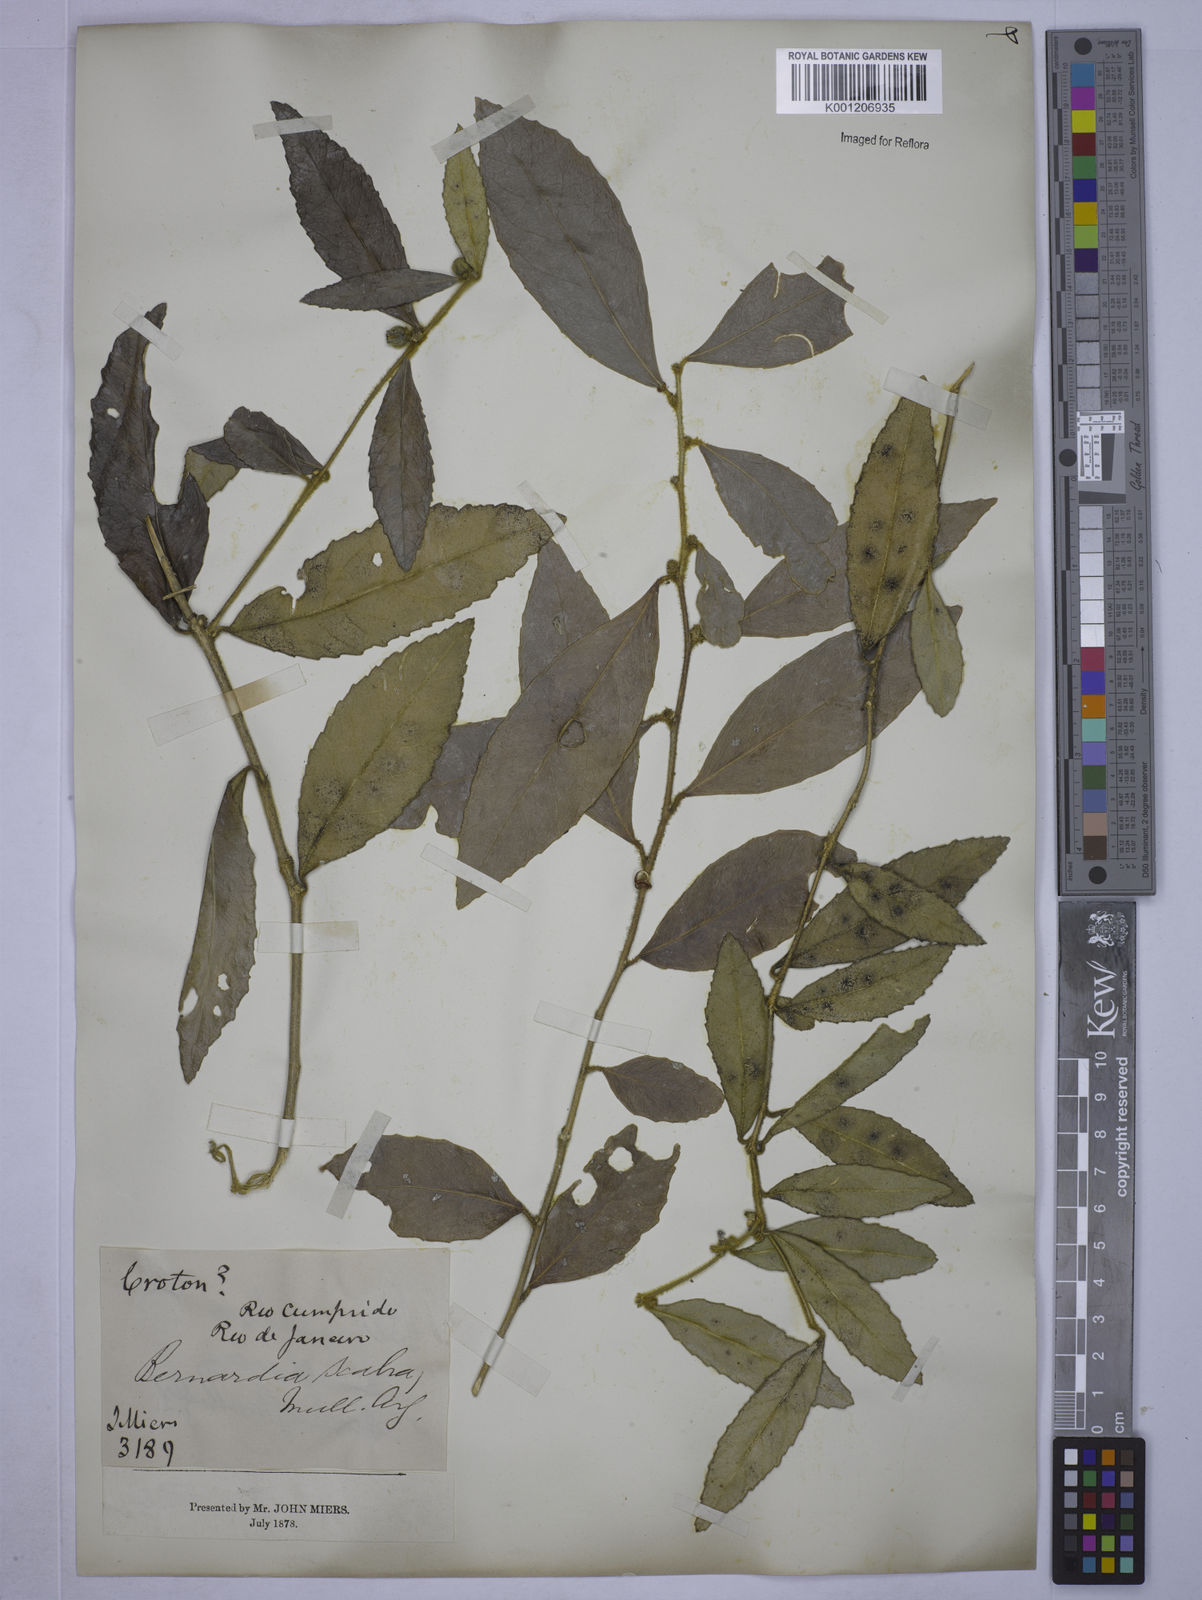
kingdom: Plantae
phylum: Tracheophyta
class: Magnoliopsida
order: Malpighiales
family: Euphorbiaceae
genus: Bernardia
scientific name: Bernardia axillaris
